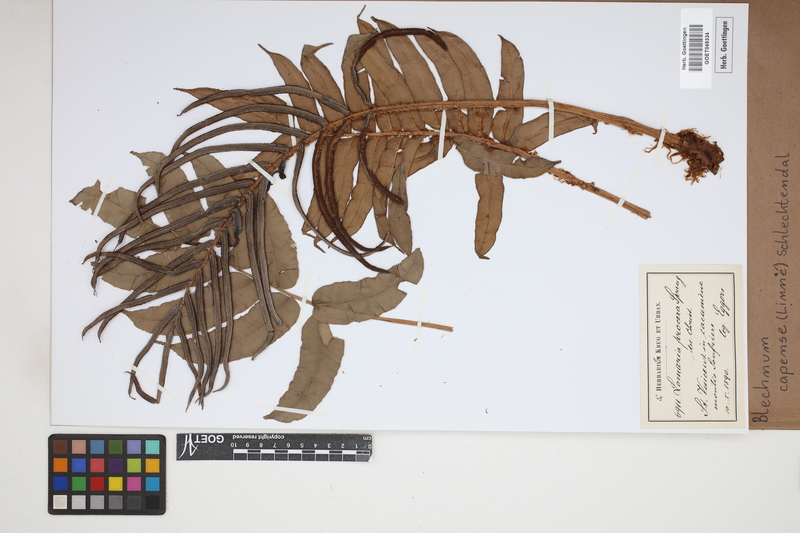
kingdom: Plantae
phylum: Tracheophyta
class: Polypodiopsida
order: Polypodiales
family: Blechnaceae
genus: Parablechnum
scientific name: Parablechnum capense
